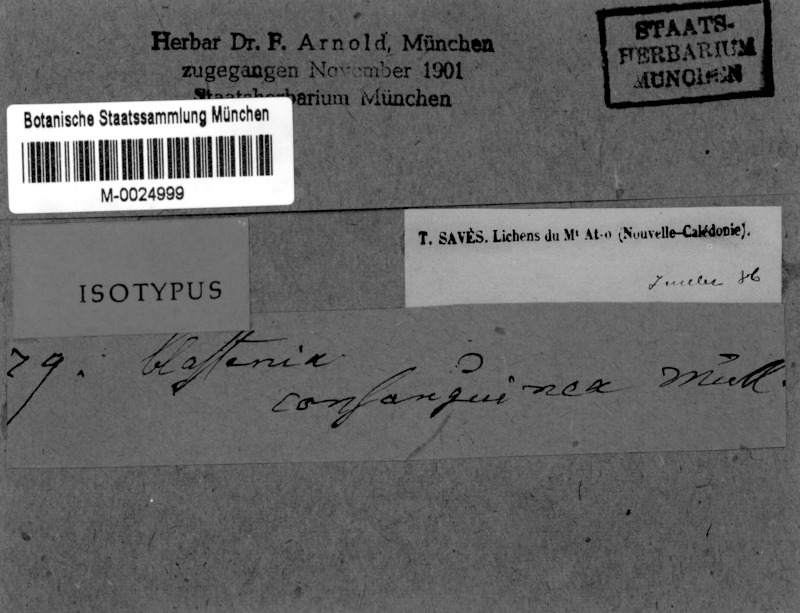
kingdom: Fungi
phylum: Ascomycota
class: Lecanoromycetes
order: Teloschistales
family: Megalosporaceae
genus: Megaloblastenia
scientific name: Megaloblastenia marginiflexa
